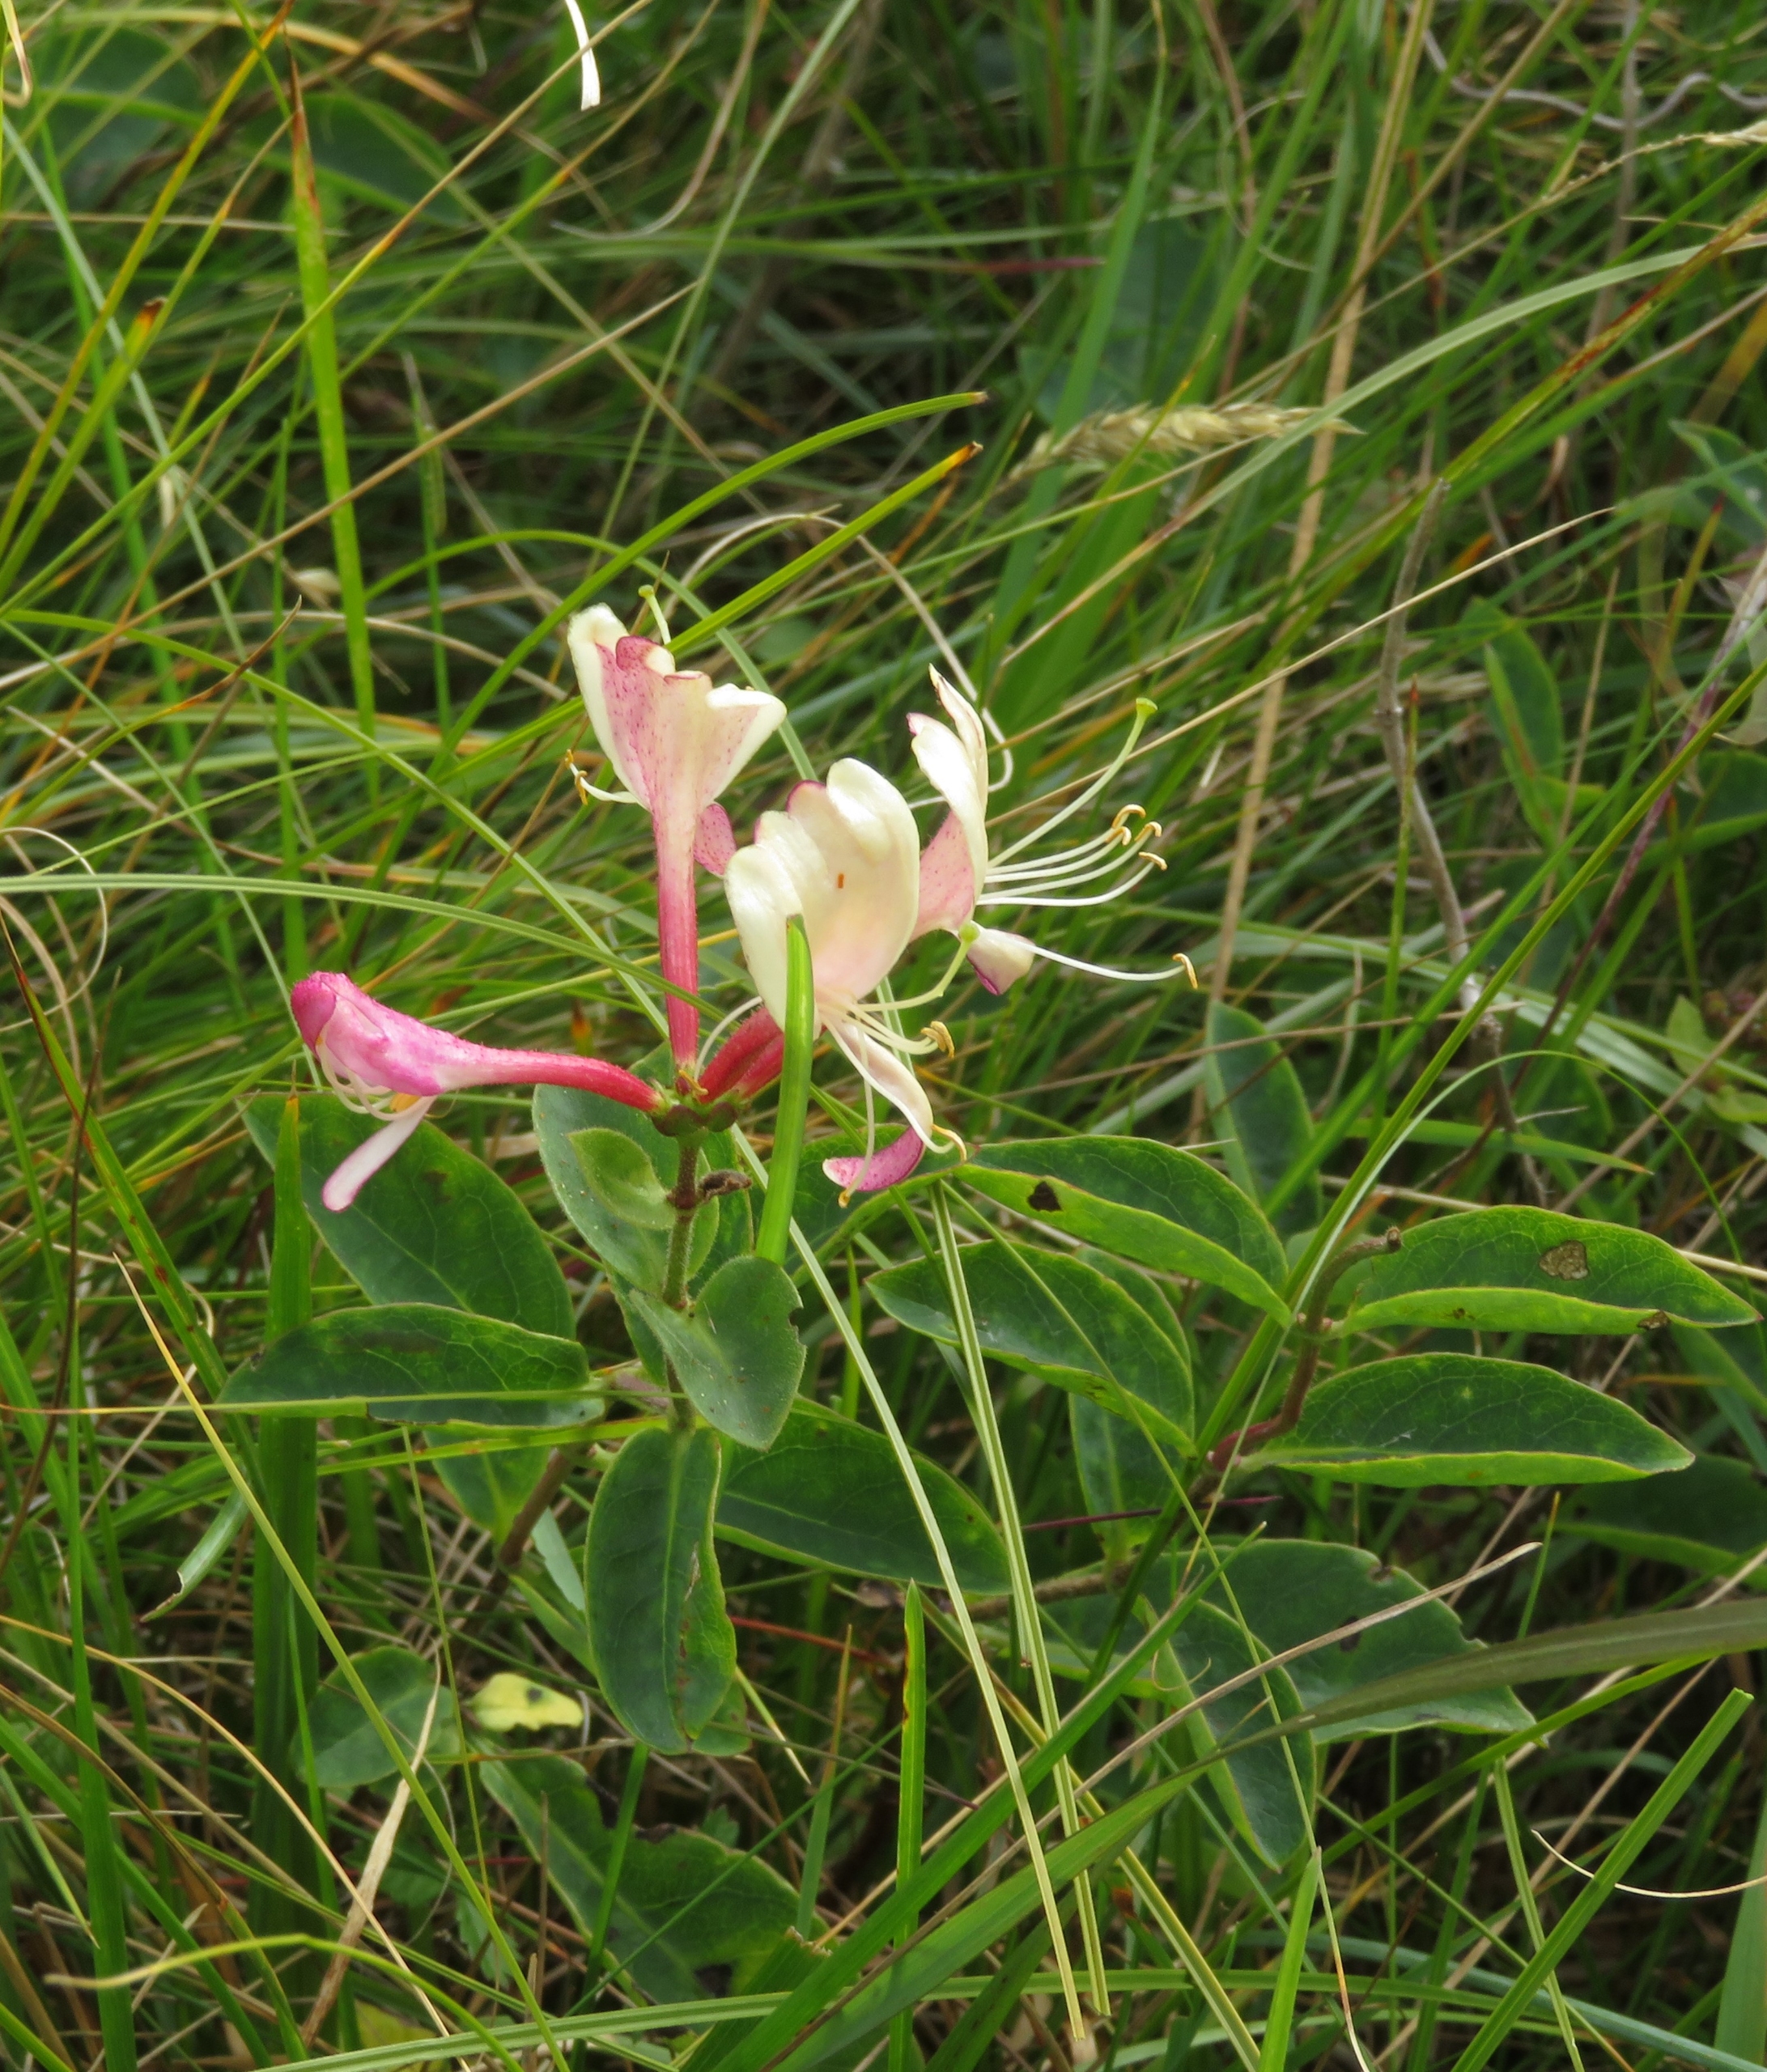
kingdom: Plantae
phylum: Tracheophyta
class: Magnoliopsida
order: Dipsacales
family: Caprifoliaceae
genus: Lonicera
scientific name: Lonicera periclymenum
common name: Almindelig gedeblad
